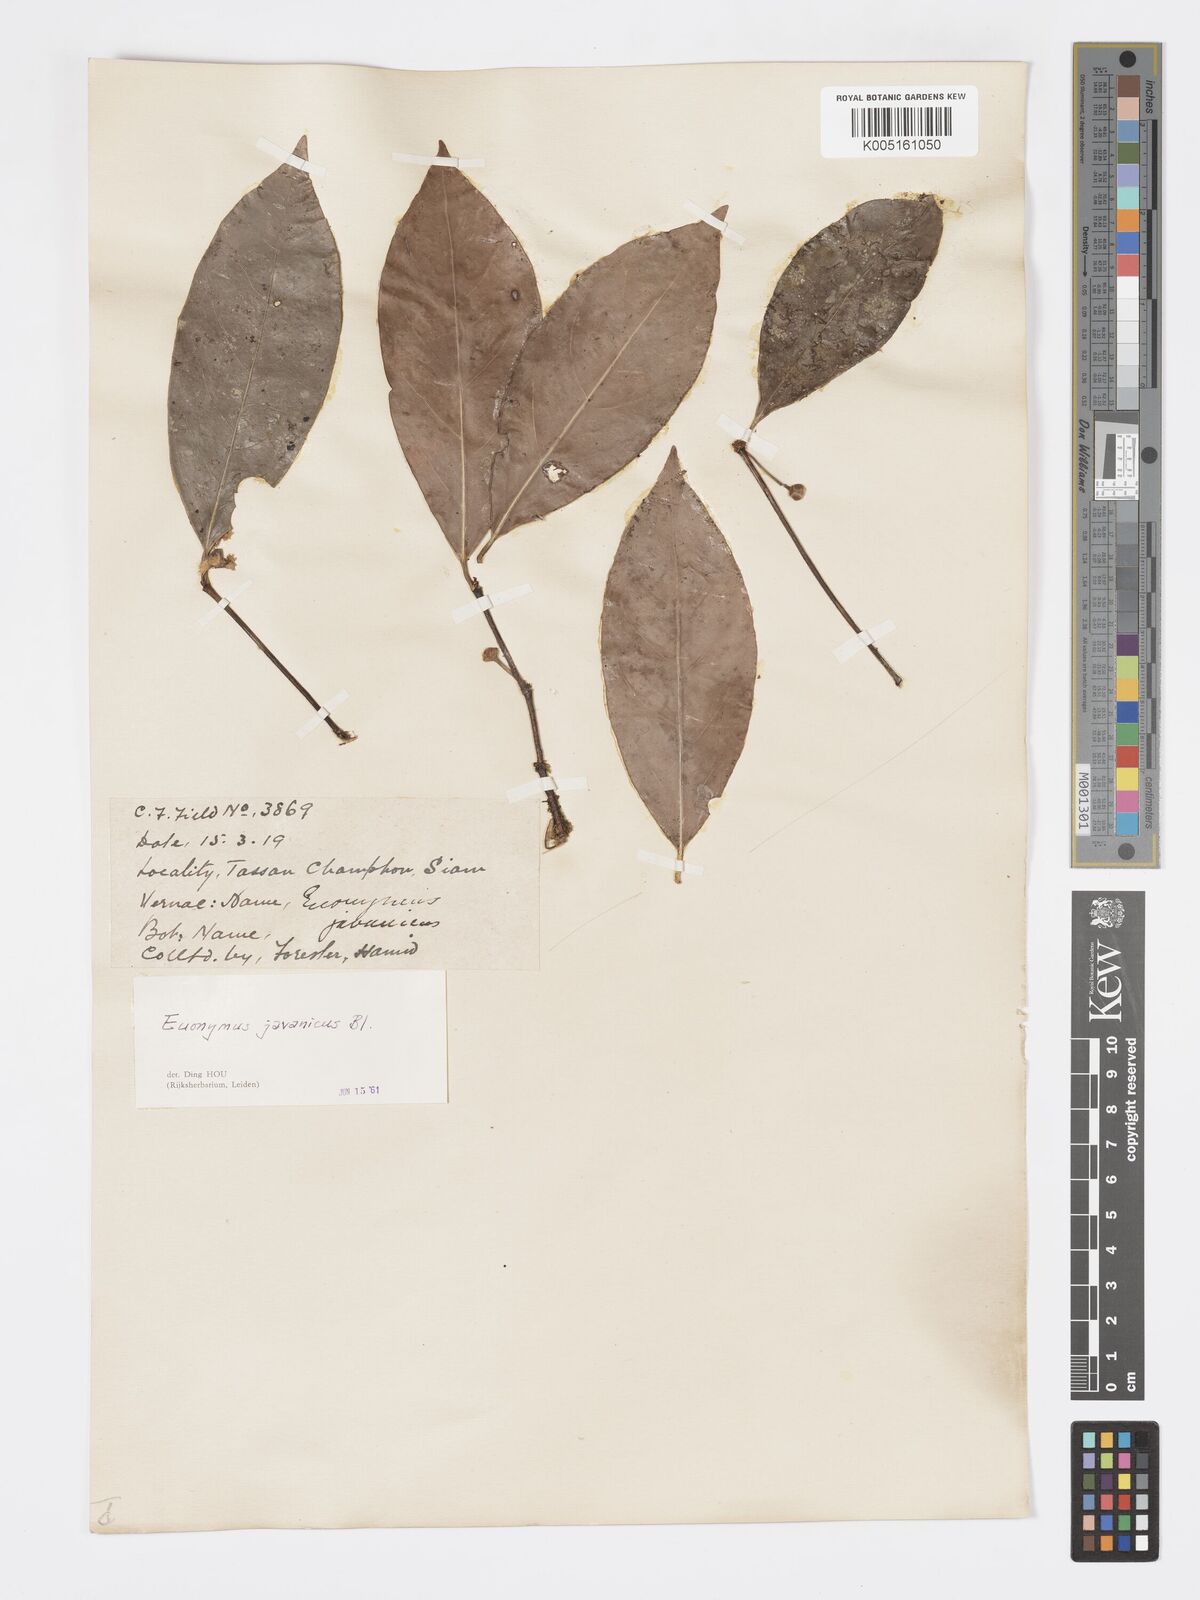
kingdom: Plantae
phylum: Tracheophyta
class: Magnoliopsida
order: Celastrales
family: Celastraceae
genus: Euonymus
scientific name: Euonymus indicus
